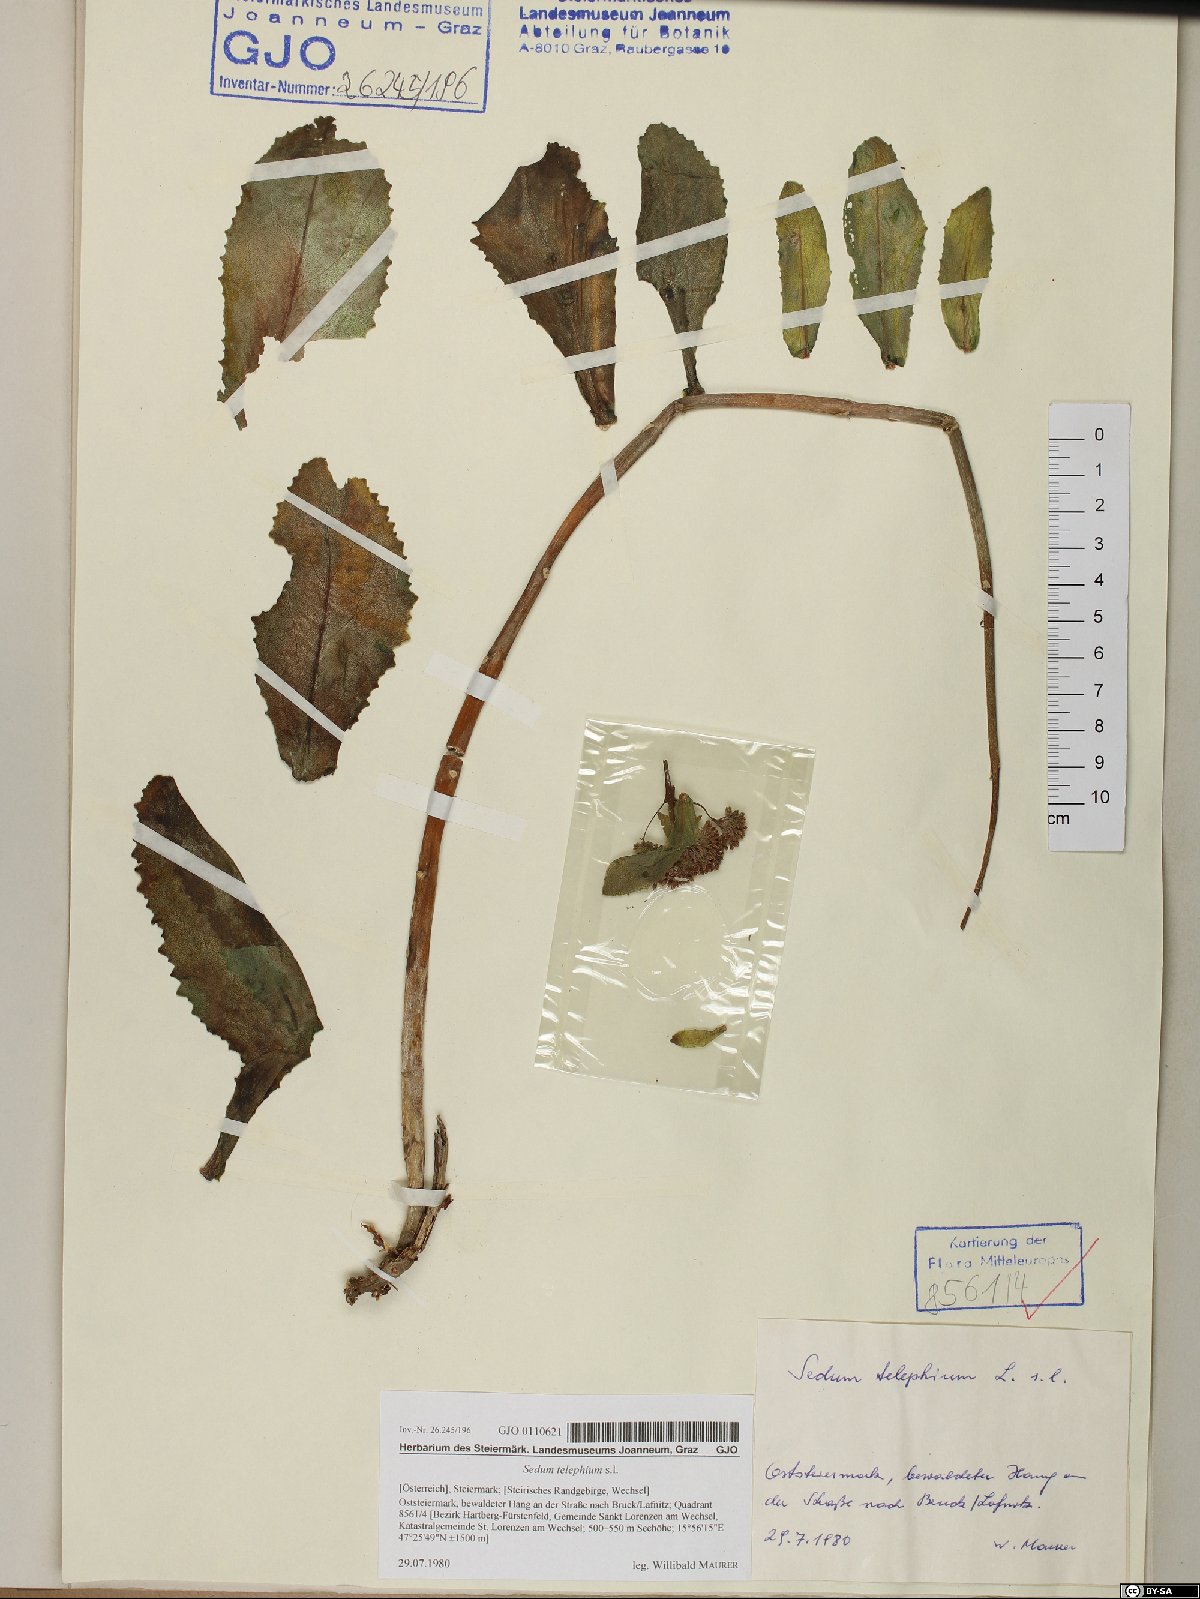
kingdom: Plantae
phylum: Tracheophyta
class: Magnoliopsida
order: Saxifragales
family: Crassulaceae
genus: Hylotelephium
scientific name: Hylotelephium telephium
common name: Live-forever
